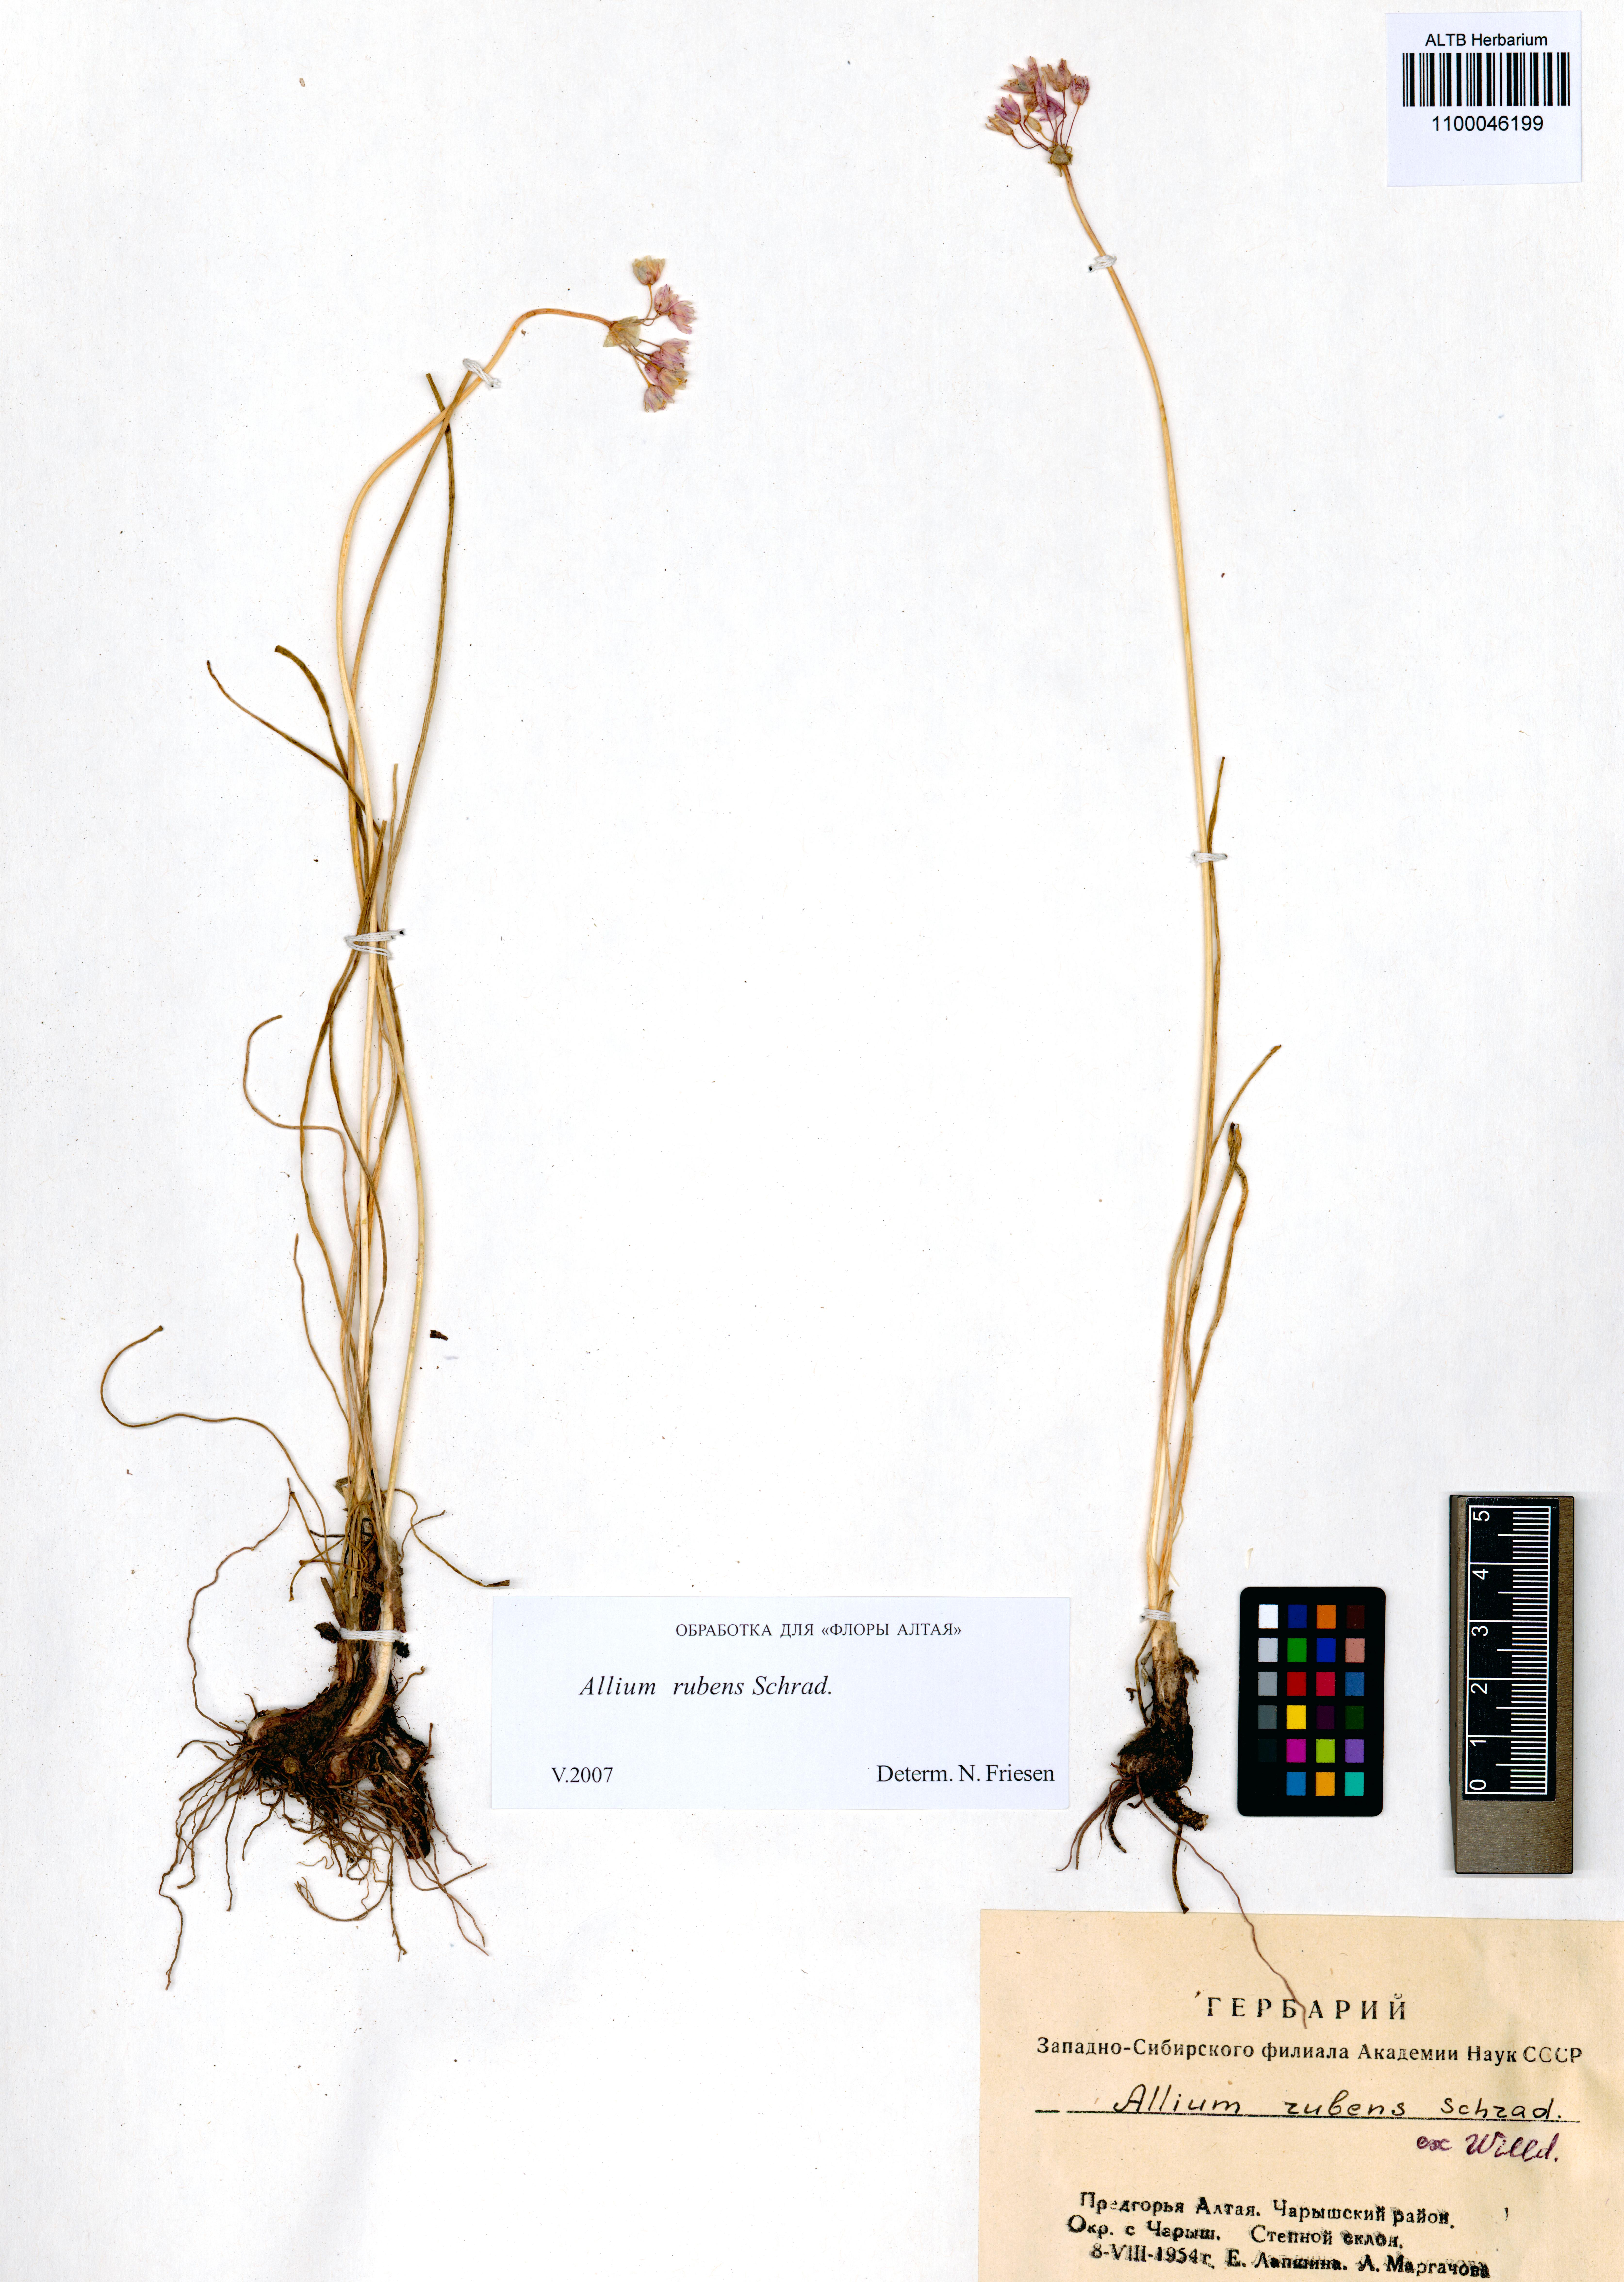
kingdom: Plantae
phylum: Tracheophyta
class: Liliopsida
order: Asparagales
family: Amaryllidaceae
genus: Allium
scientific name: Allium rubens
